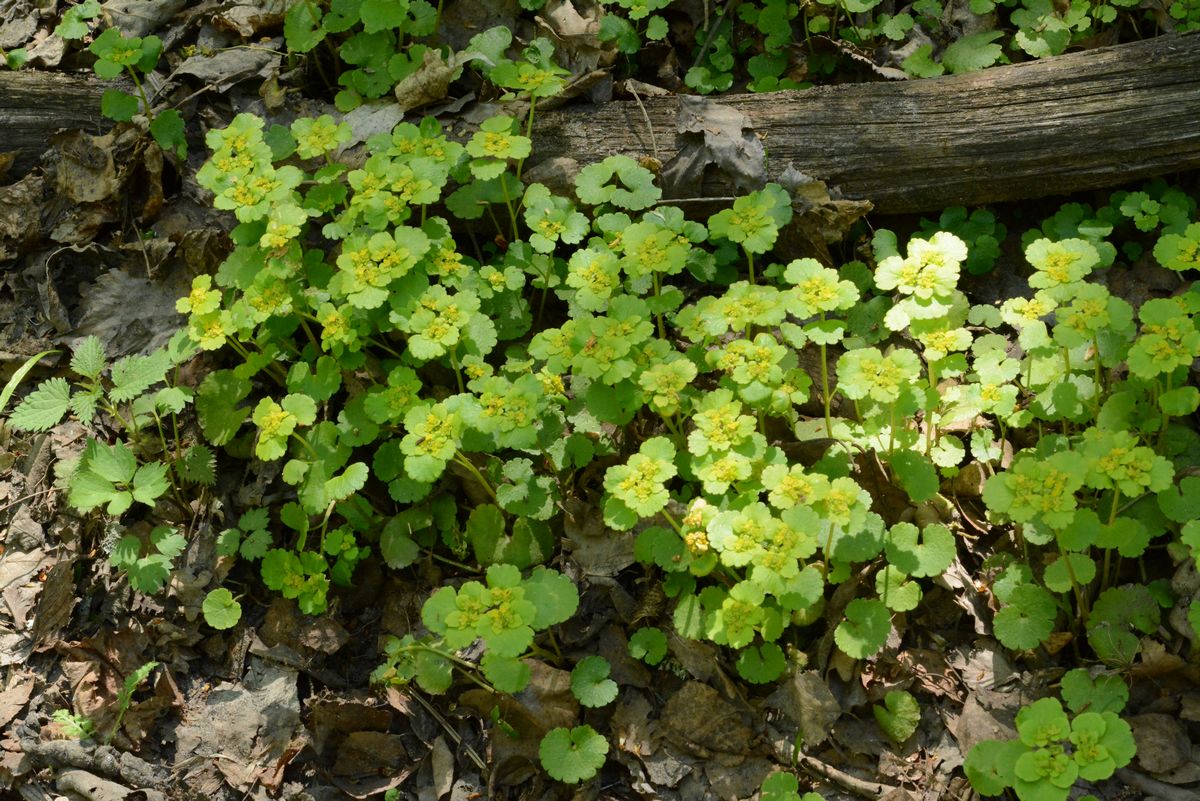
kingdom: Plantae
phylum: Tracheophyta
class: Magnoliopsida
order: Saxifragales
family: Saxifragaceae
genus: Chrysosplenium
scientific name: Chrysosplenium alternifolium
